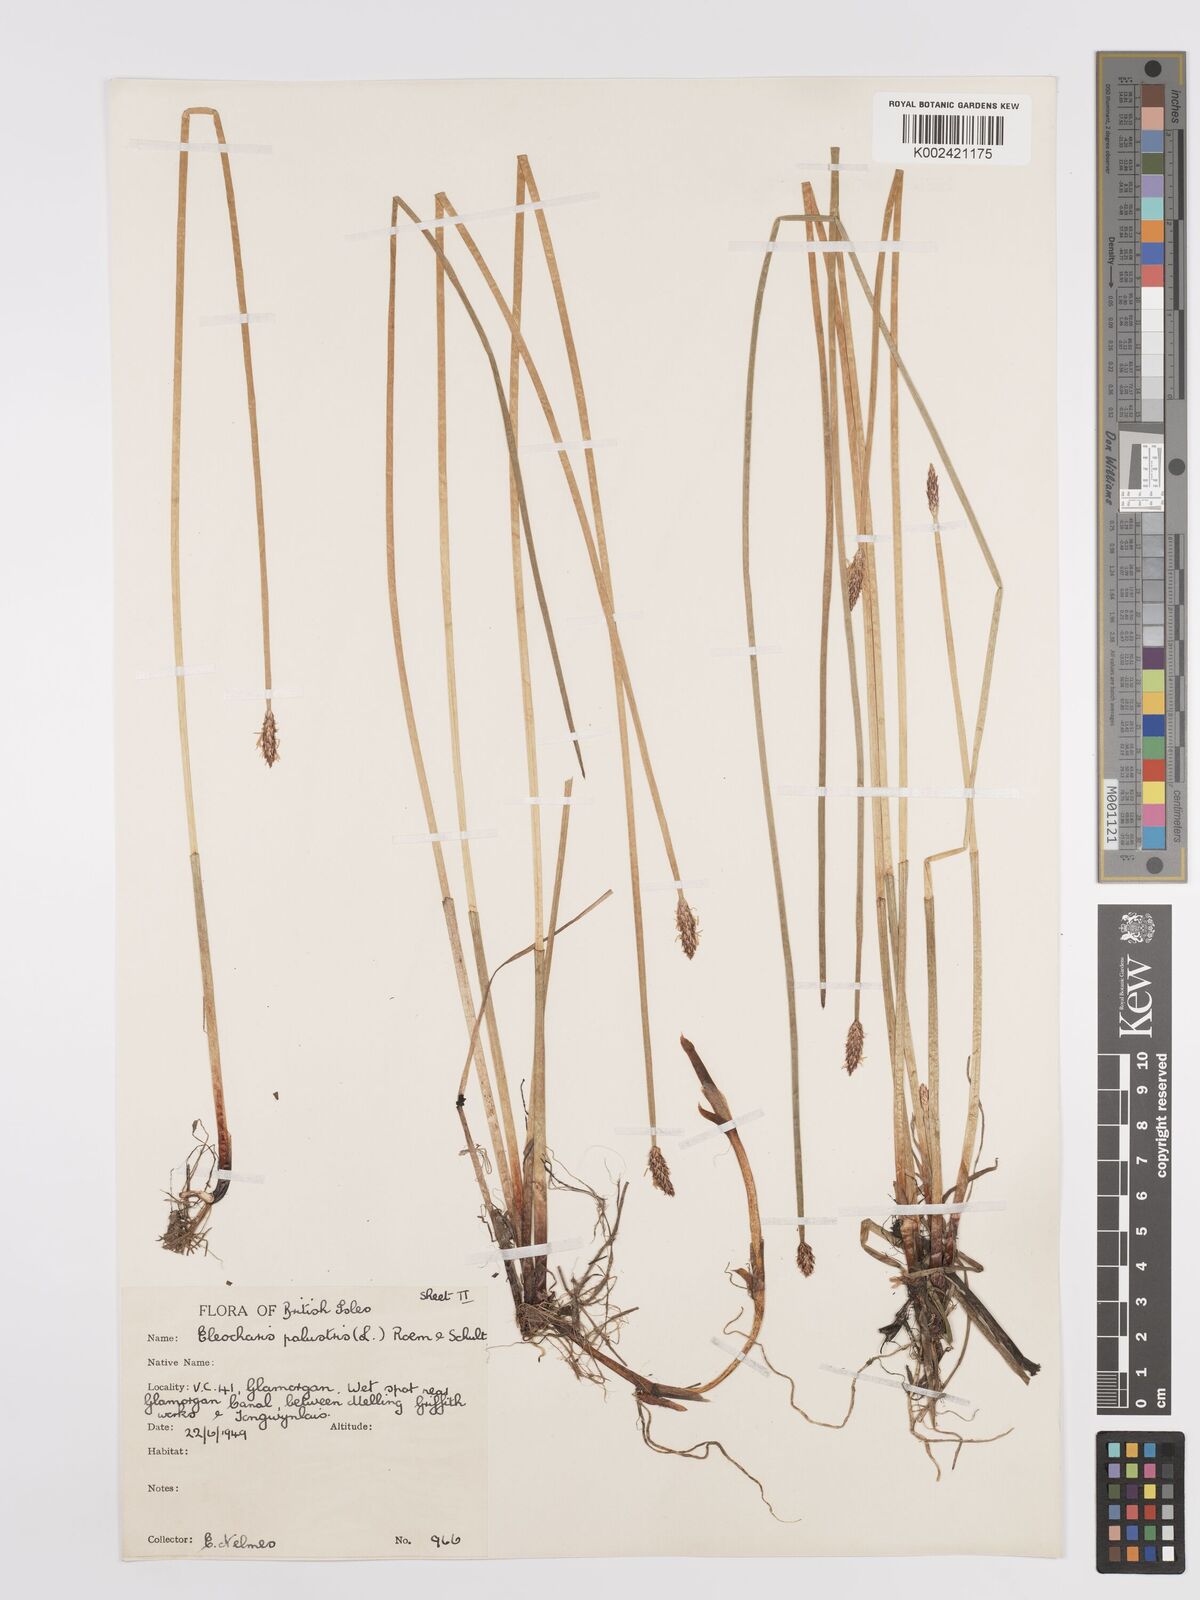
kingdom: Plantae
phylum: Tracheophyta
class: Liliopsida
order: Poales
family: Cyperaceae
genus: Eleocharis
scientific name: Eleocharis palustris
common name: Common spike-rush
